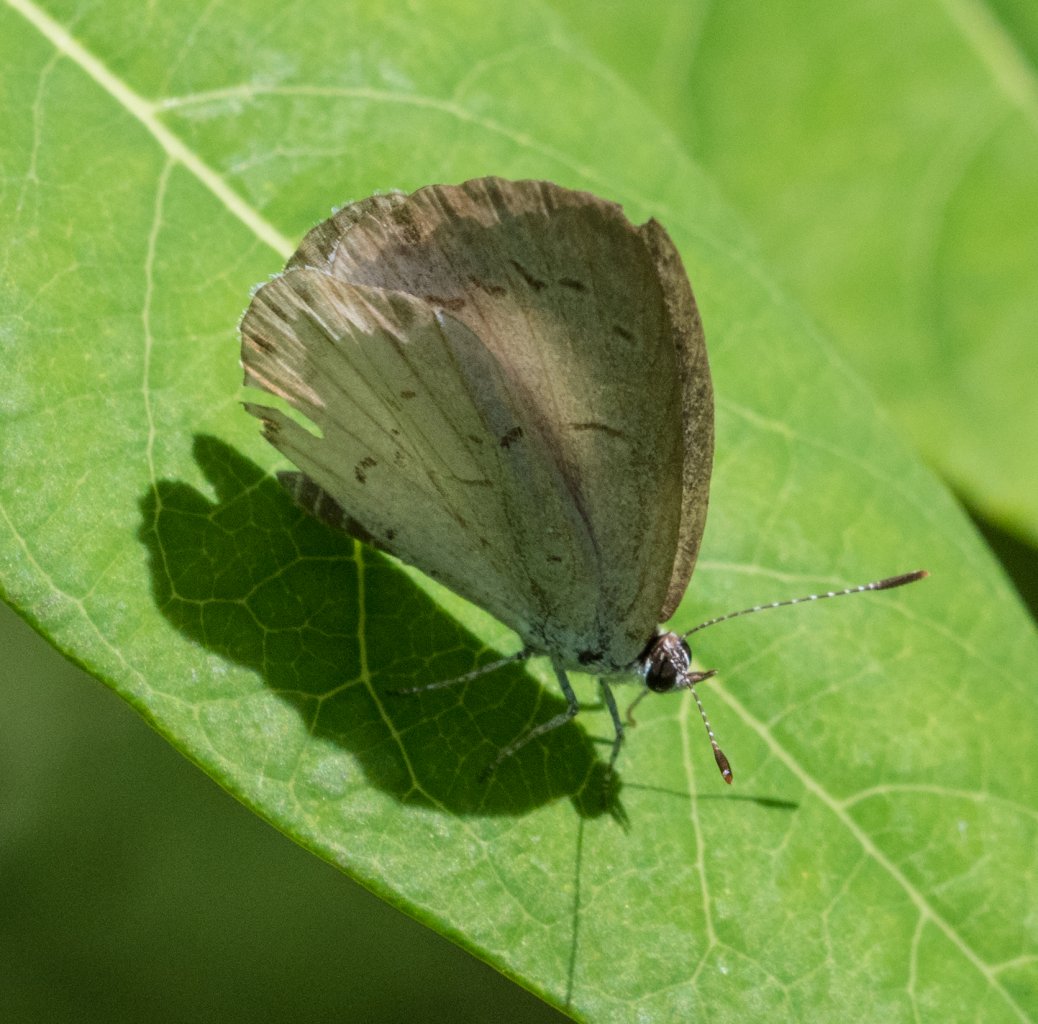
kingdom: Animalia
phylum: Arthropoda
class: Insecta
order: Lepidoptera
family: Lycaenidae
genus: Celastrina
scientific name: Celastrina
